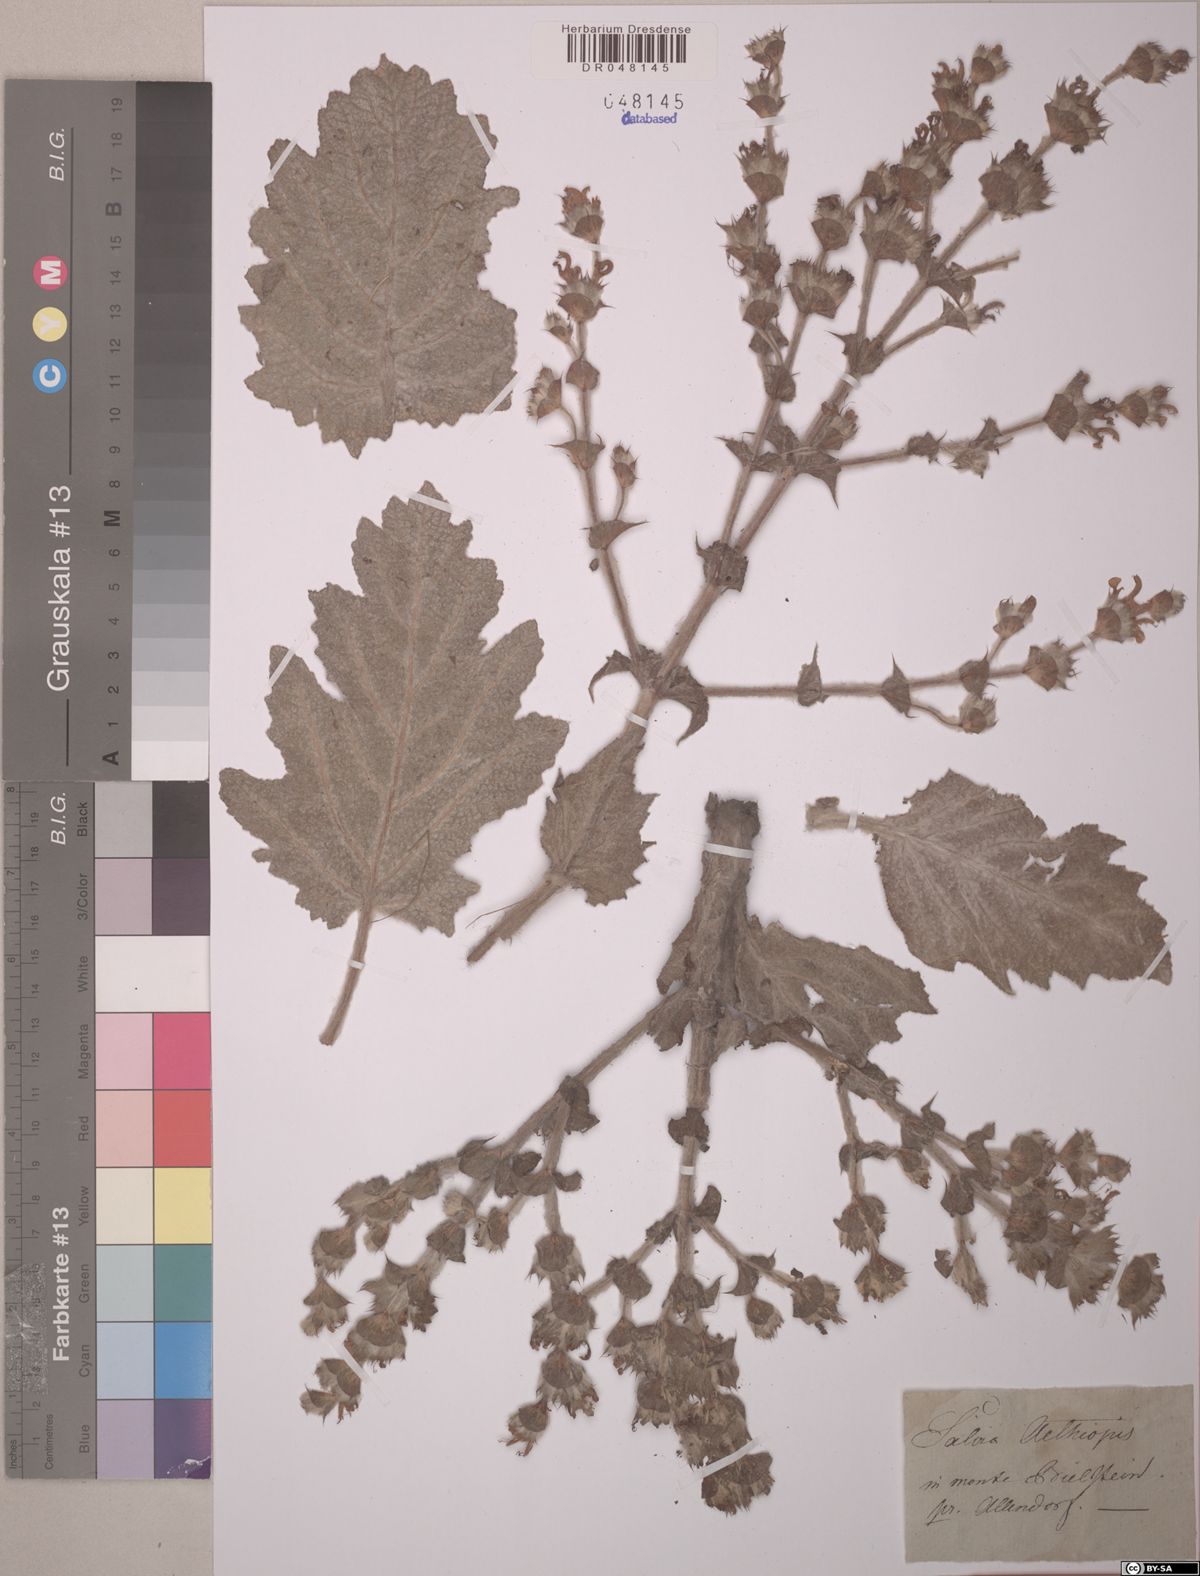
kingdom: Plantae
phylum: Tracheophyta
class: Magnoliopsida
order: Lamiales
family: Lamiaceae
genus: Salvia
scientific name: Salvia aethiopis
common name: Mediterranean sage
